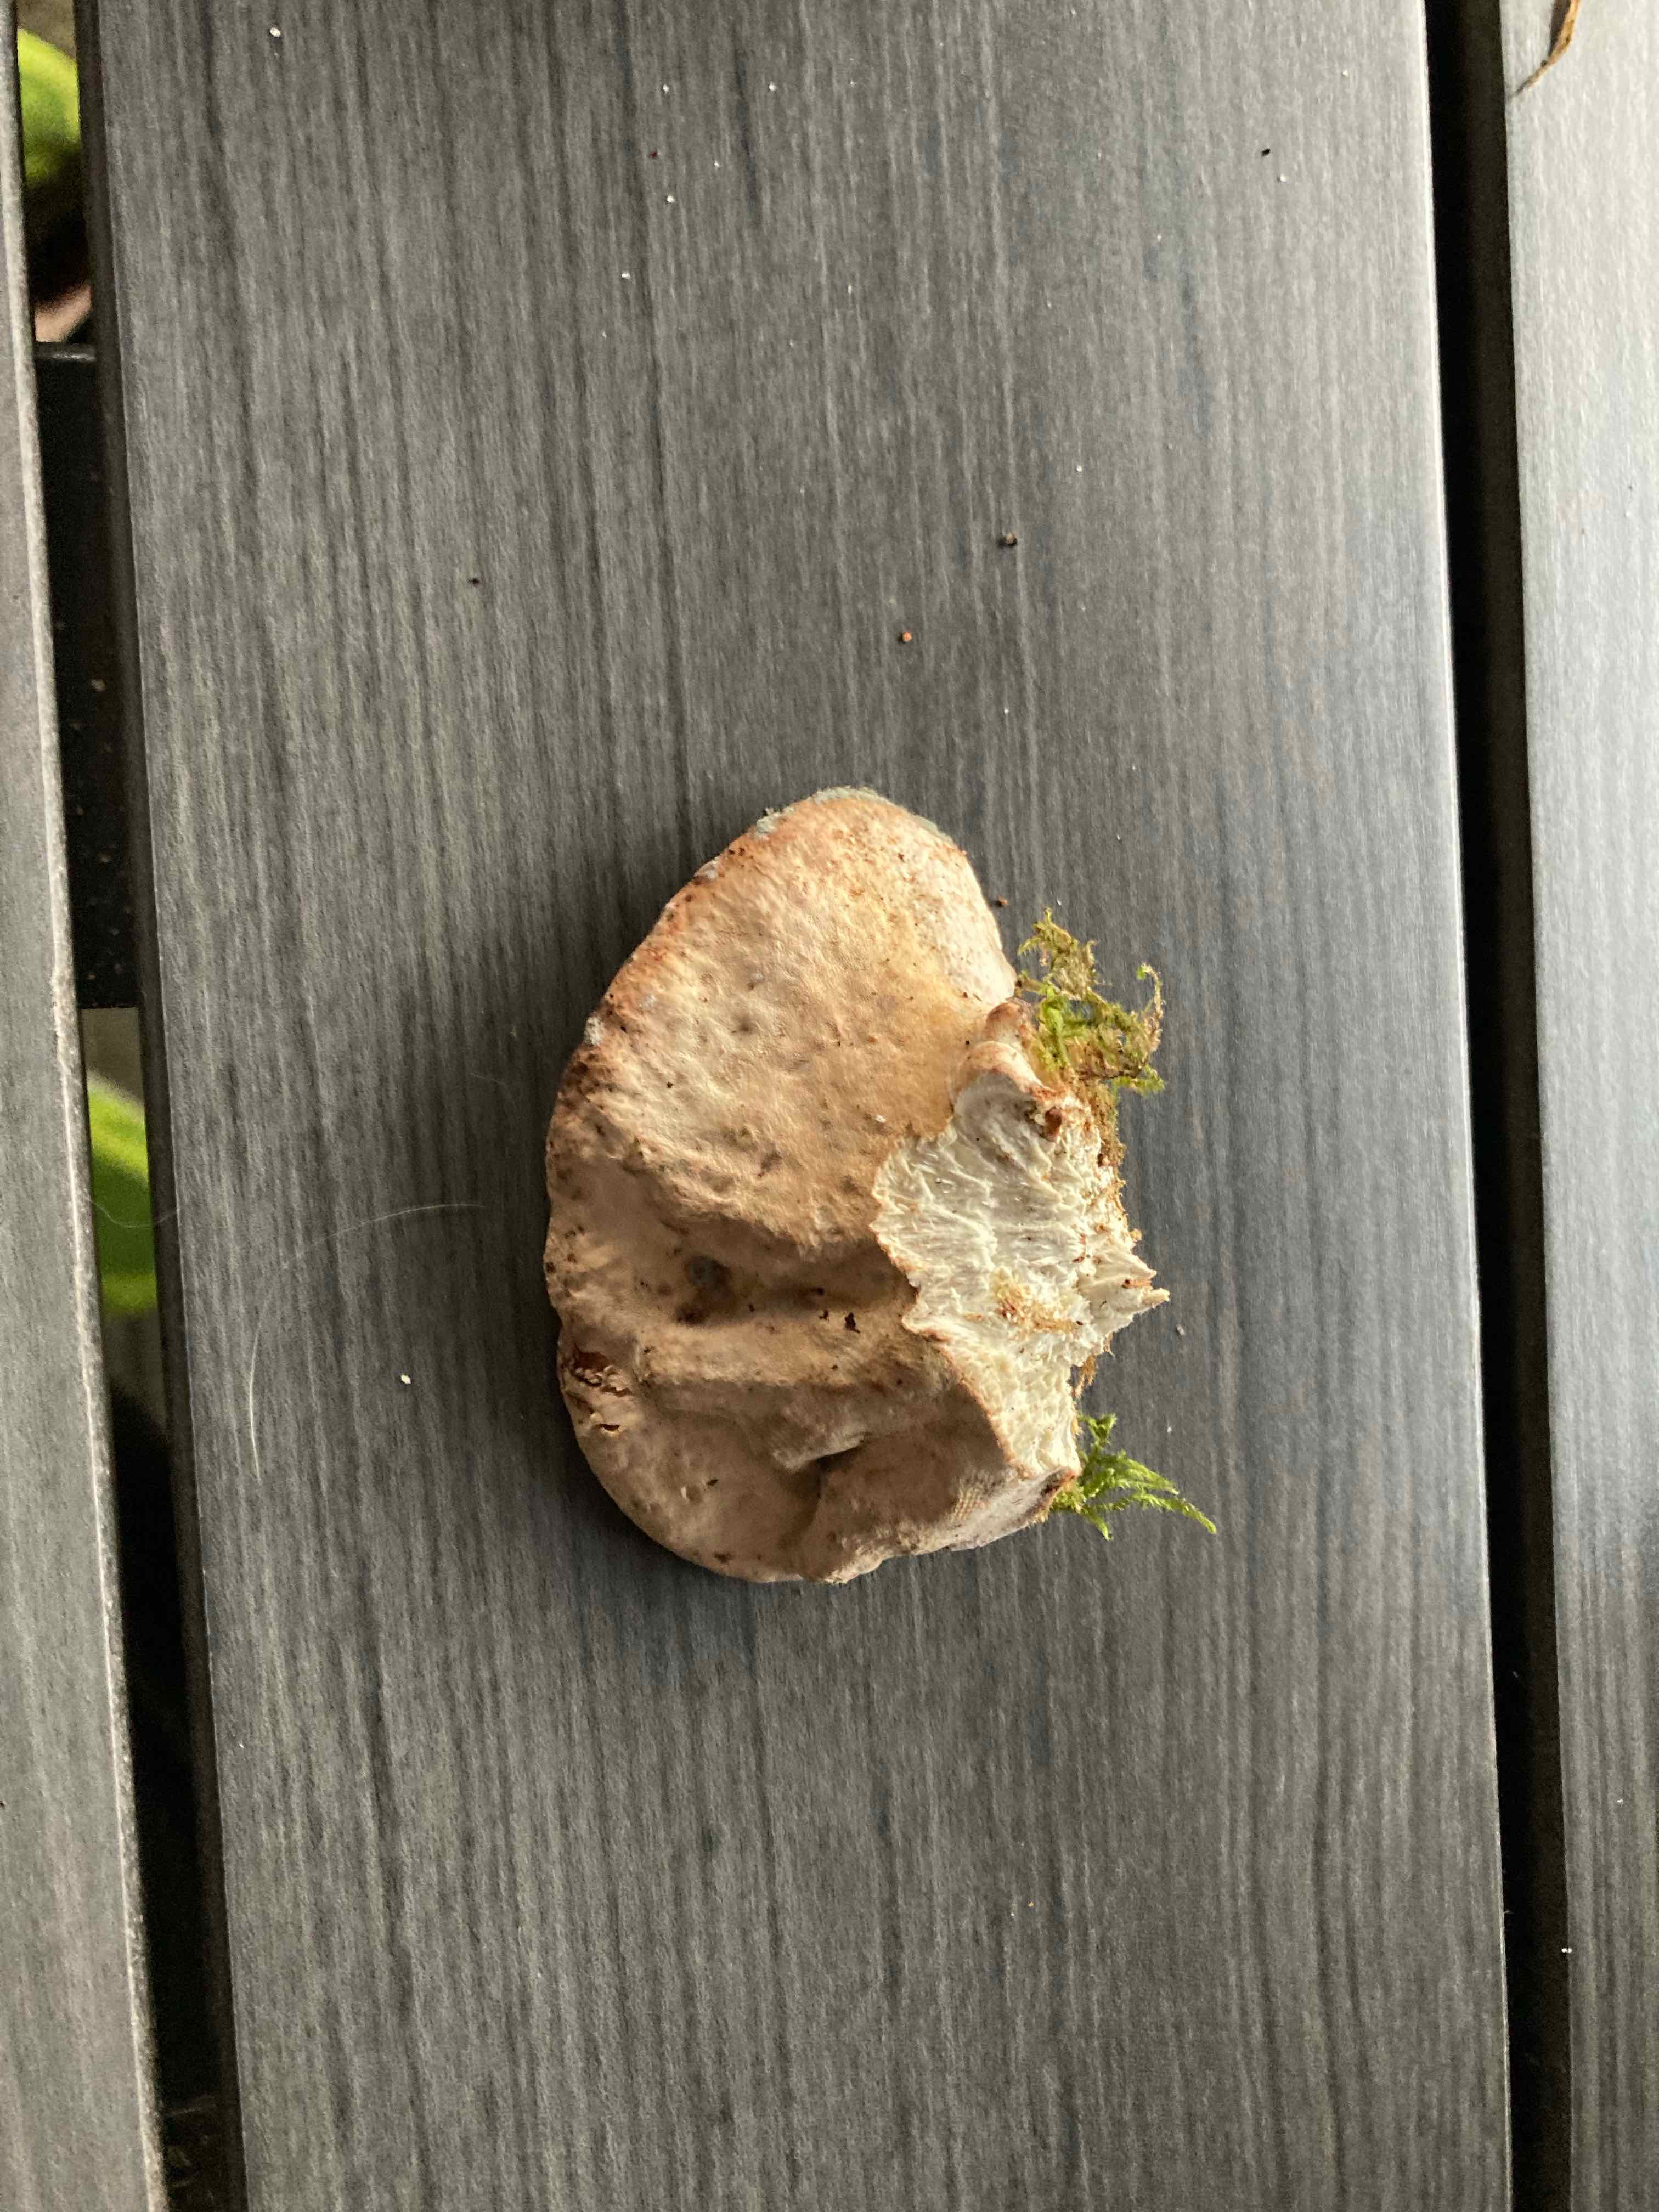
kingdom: Fungi
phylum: Basidiomycota
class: Agaricomycetes
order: Polyporales
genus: Calcipostia
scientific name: Calcipostia guttulata
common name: dråbe-kødporesvamp
